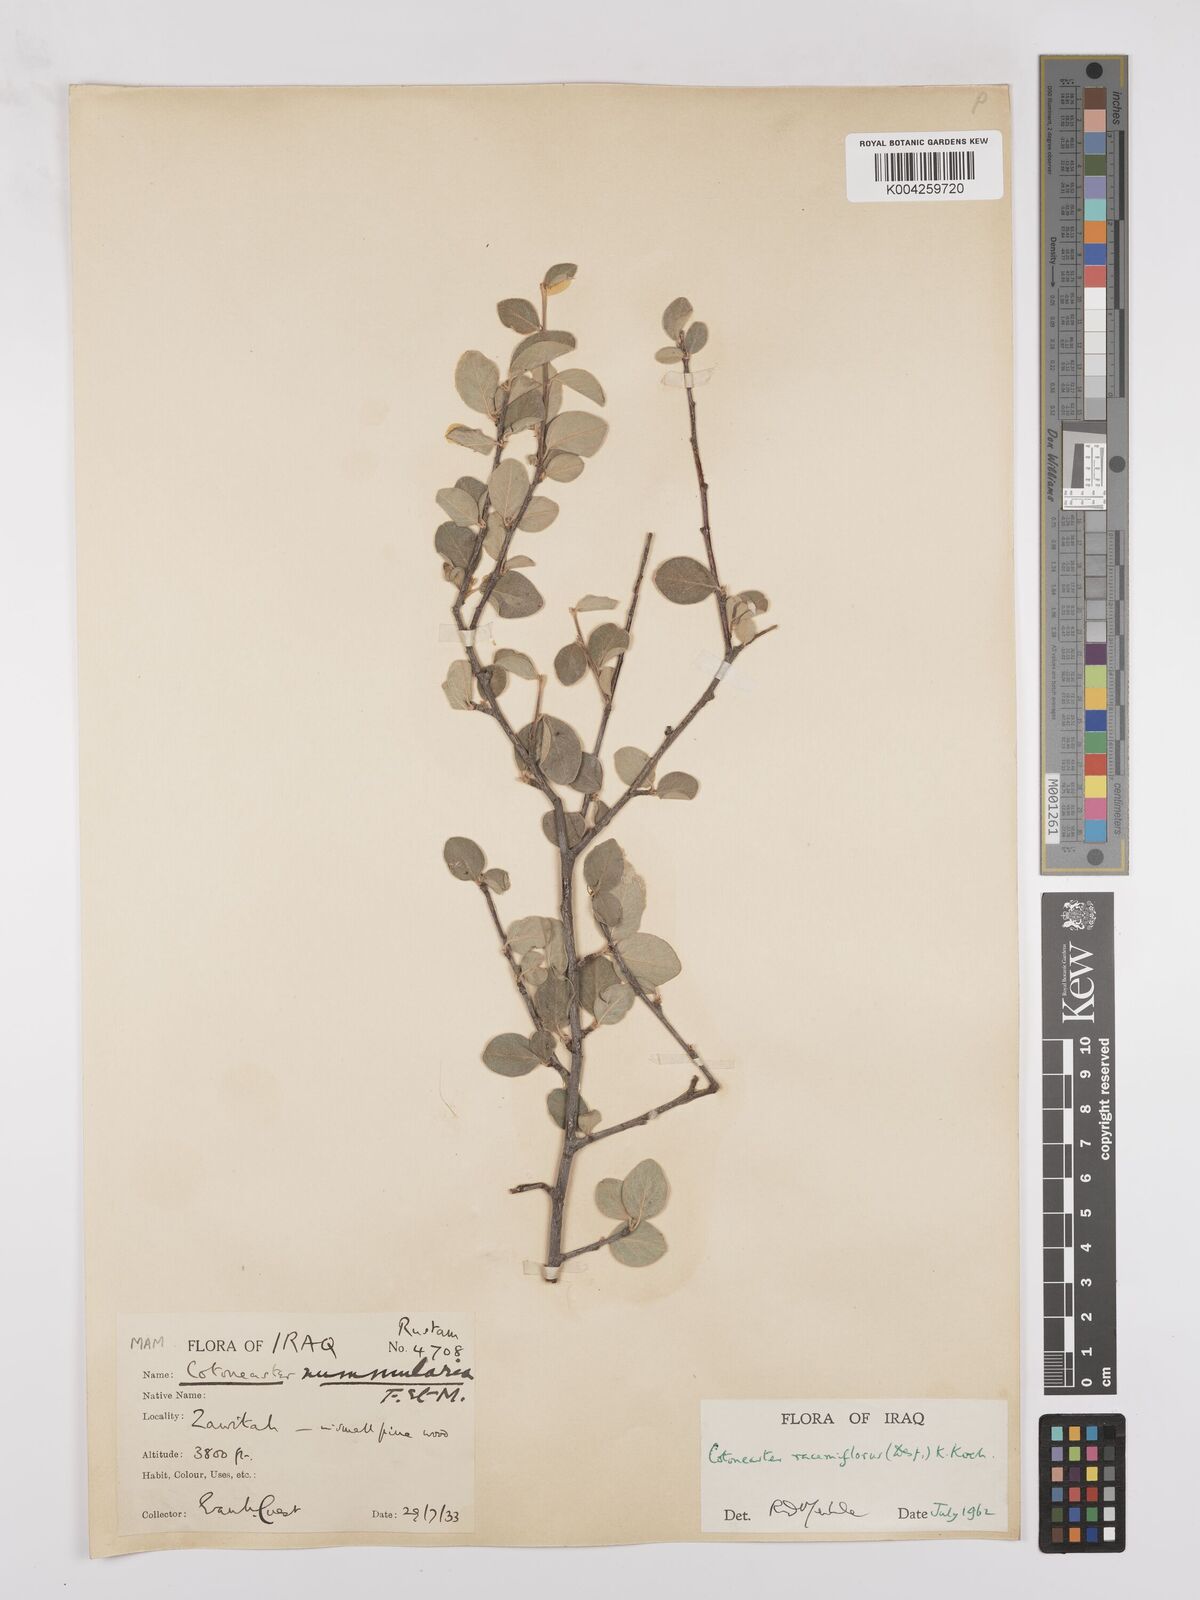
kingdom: Plantae
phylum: Tracheophyta
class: Magnoliopsida
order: Rosales
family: Rosaceae
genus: Cotoneaster
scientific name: Cotoneaster racemiflorus
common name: Cluster-flower cotoneaster
